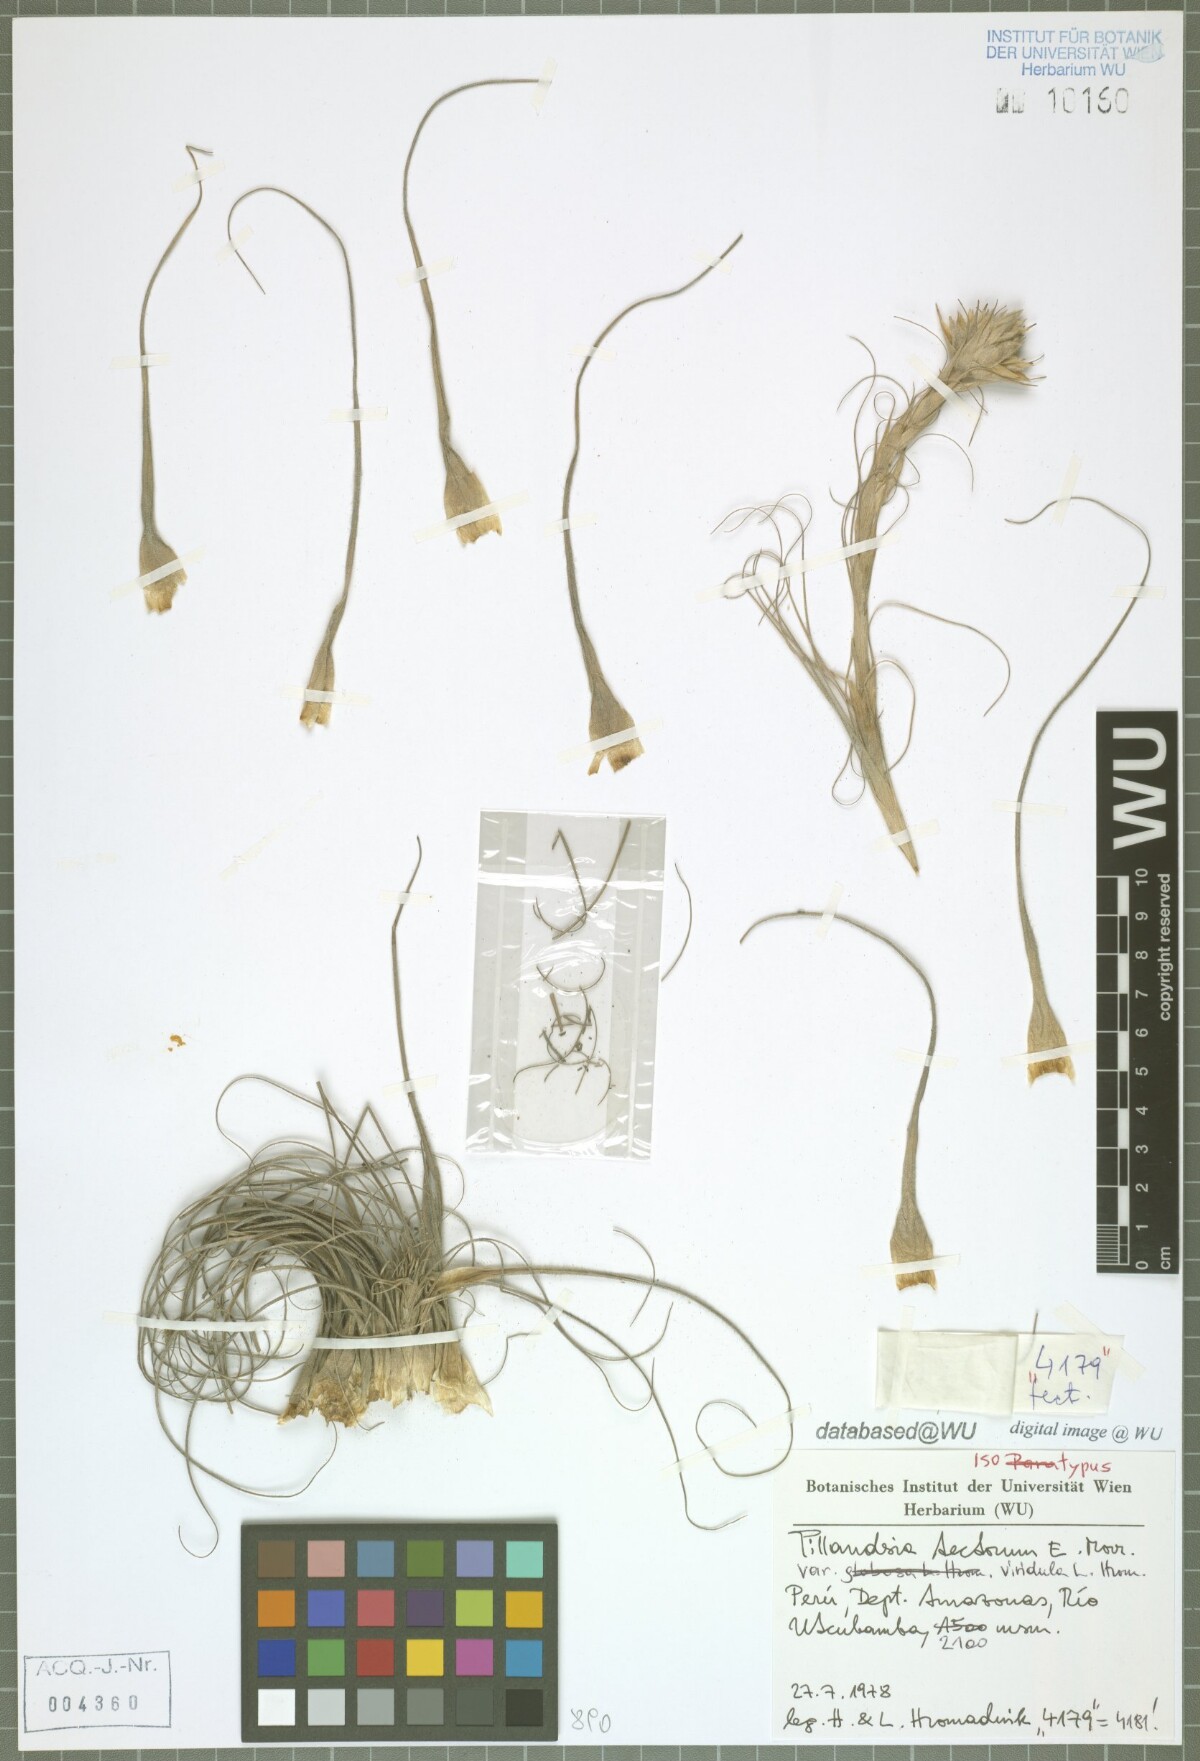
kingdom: Plantae
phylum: Tracheophyta
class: Liliopsida
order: Poales
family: Bromeliaceae
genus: Tillandsia
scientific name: Tillandsia tectorum
